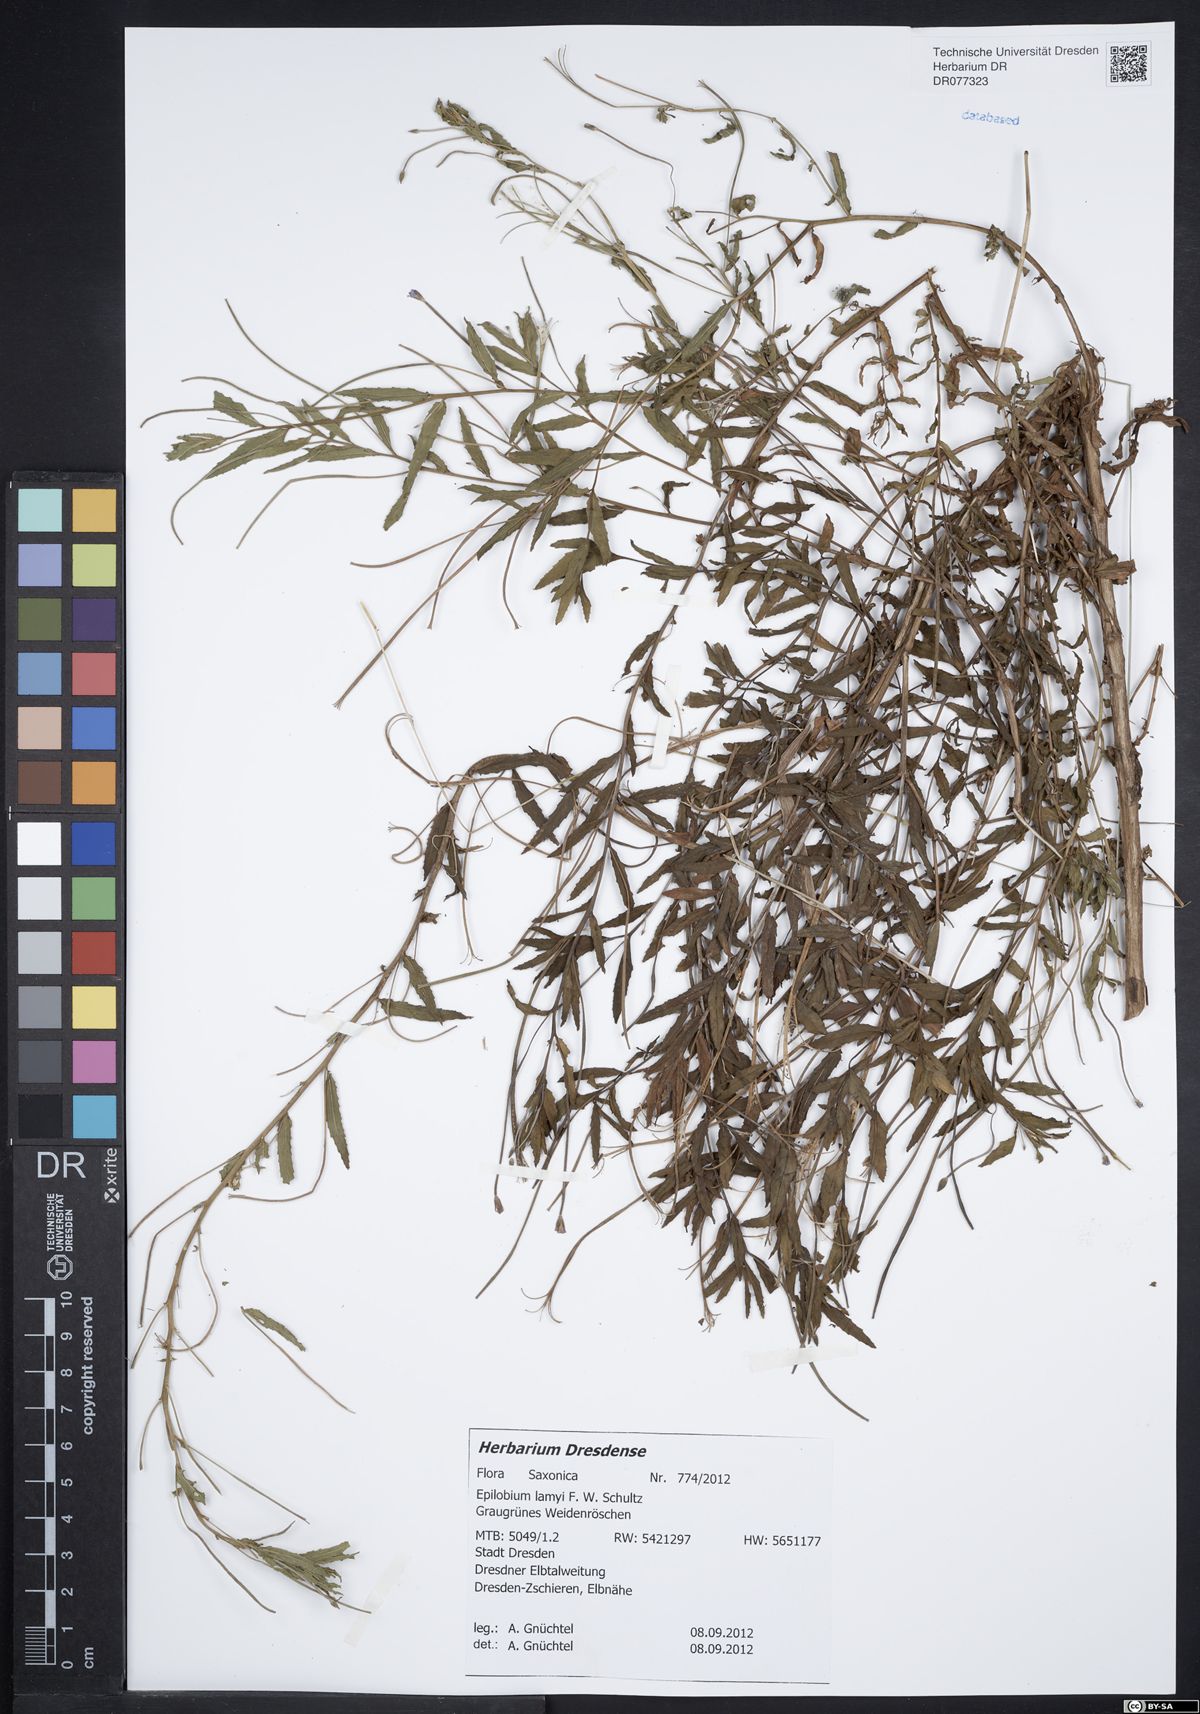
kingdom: Plantae
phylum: Tracheophyta
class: Magnoliopsida
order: Myrtales
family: Onagraceae
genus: Epilobium
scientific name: Epilobium lamyi
